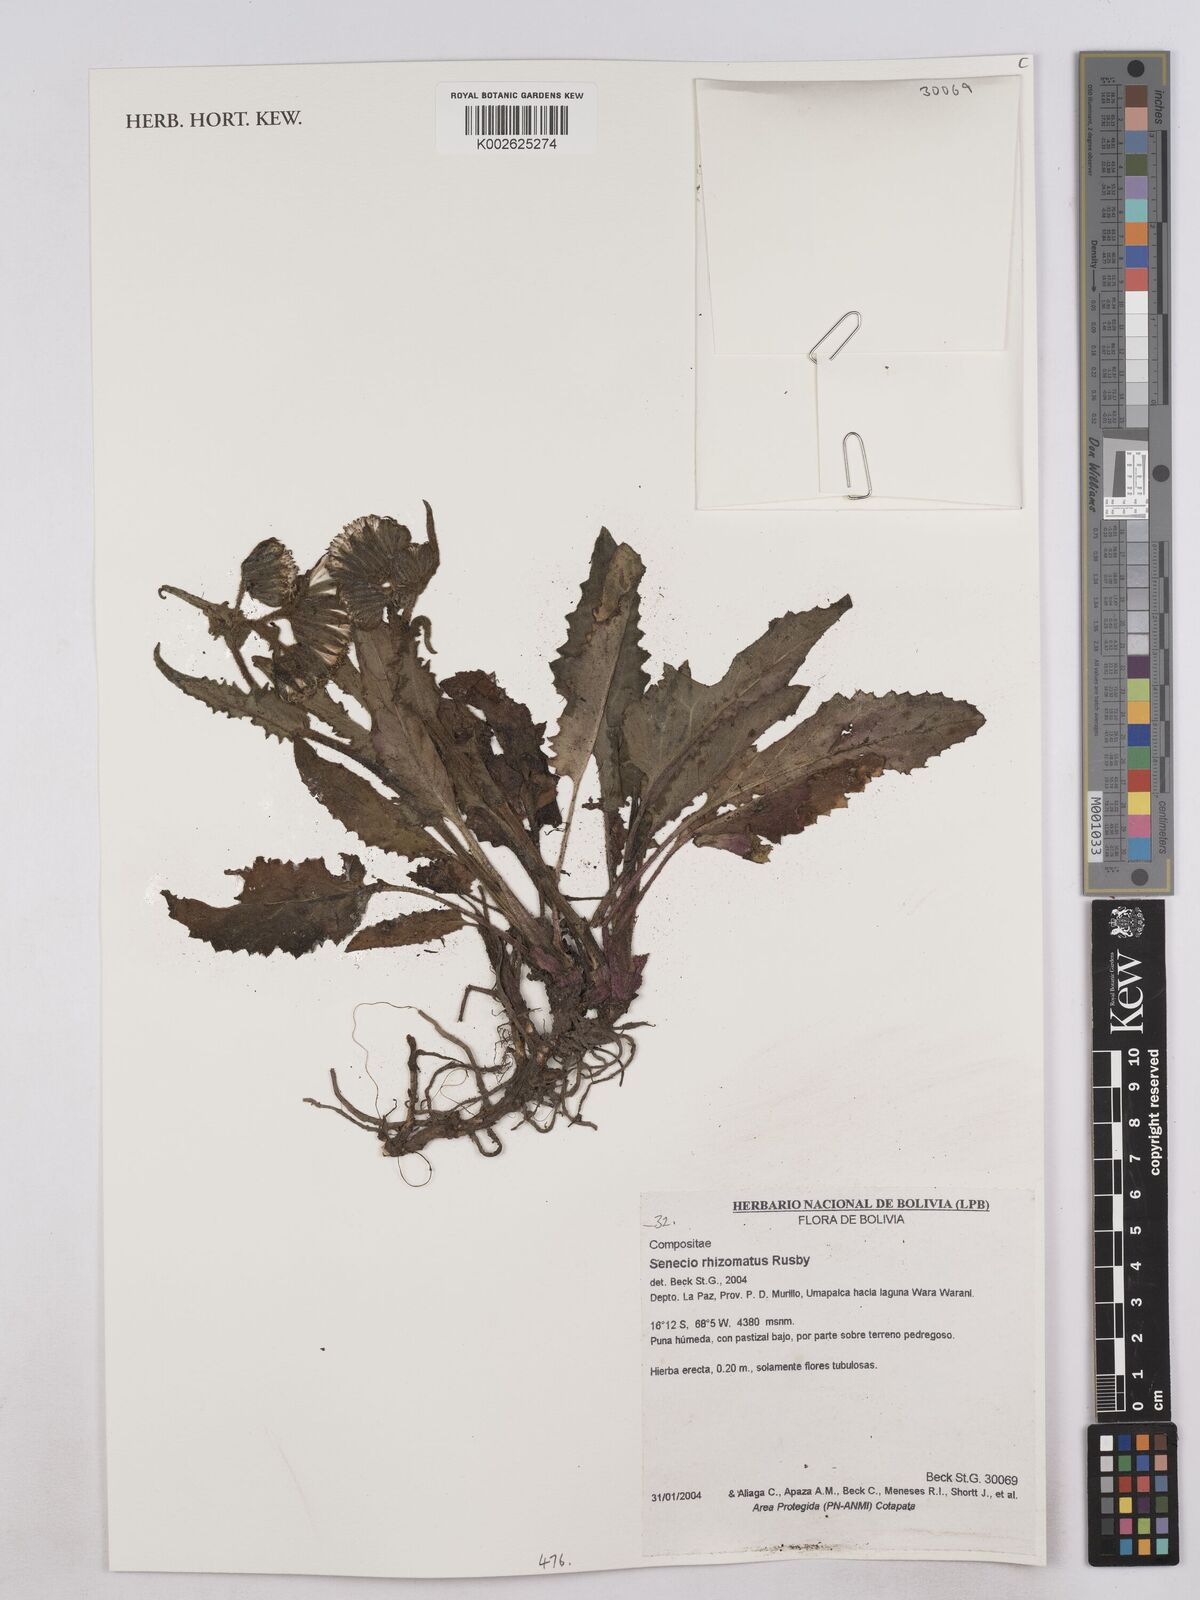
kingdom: Plantae
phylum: Tracheophyta
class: Magnoliopsida
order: Asterales
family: Asteraceae
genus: Senecio
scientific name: Senecio rhizomatus
